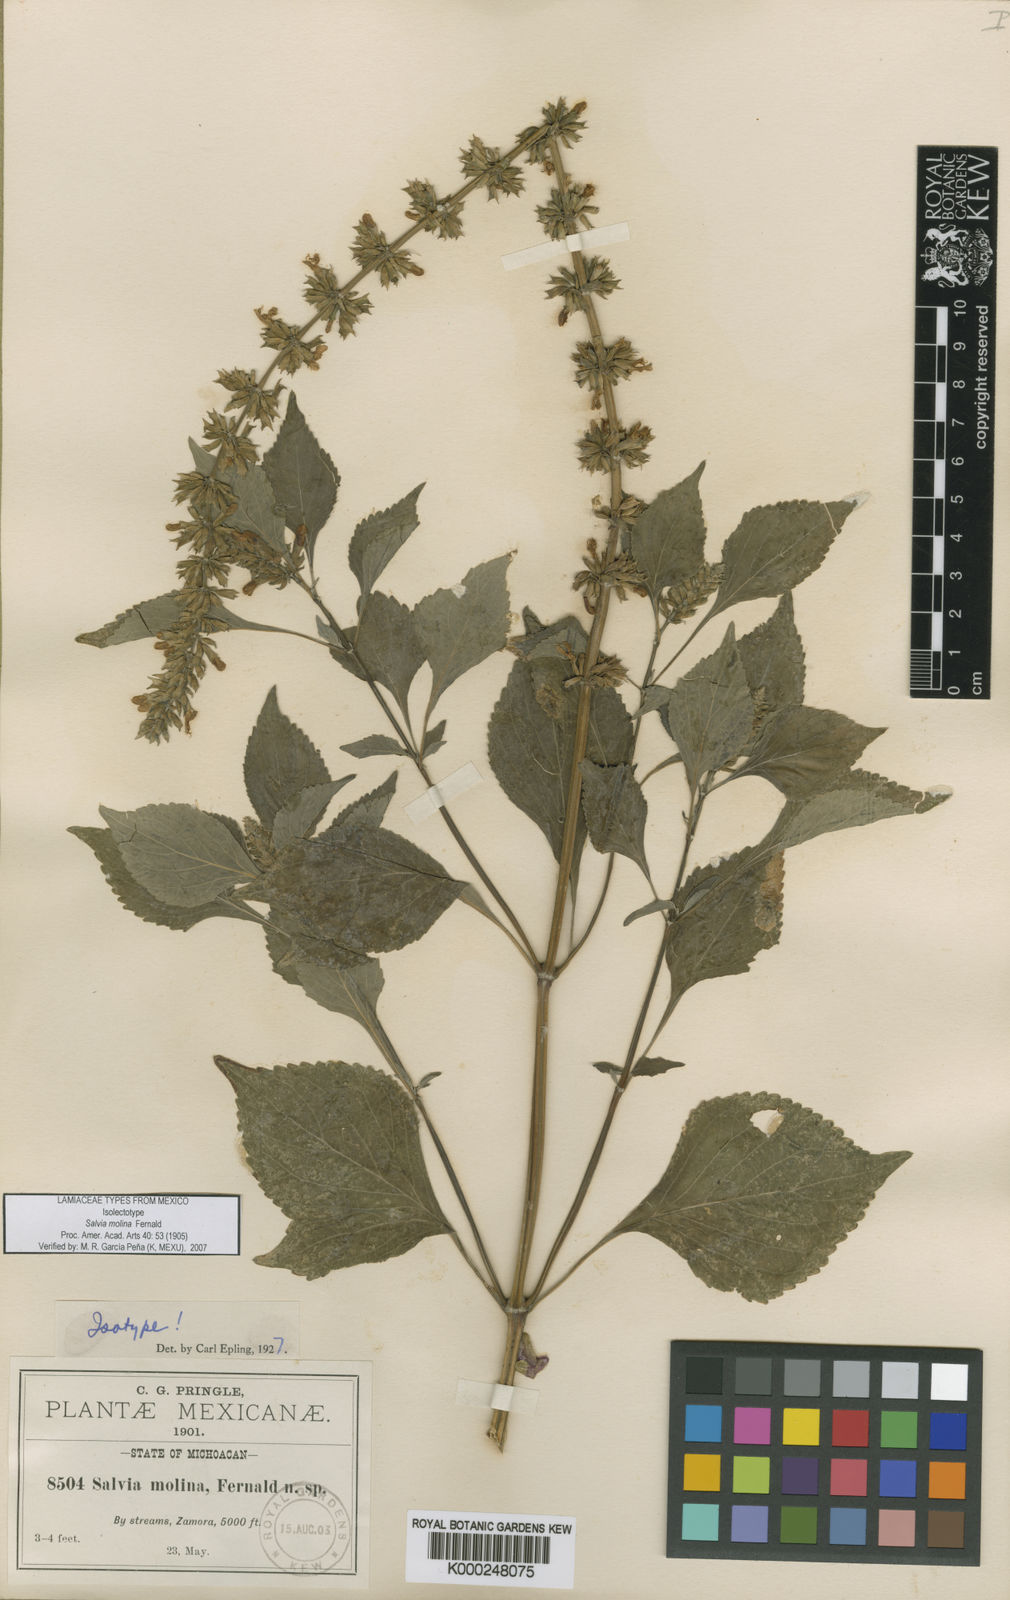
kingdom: Plantae
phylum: Tracheophyta
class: Magnoliopsida
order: Lamiales
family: Lamiaceae
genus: Salvia
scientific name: Salvia longispicata
